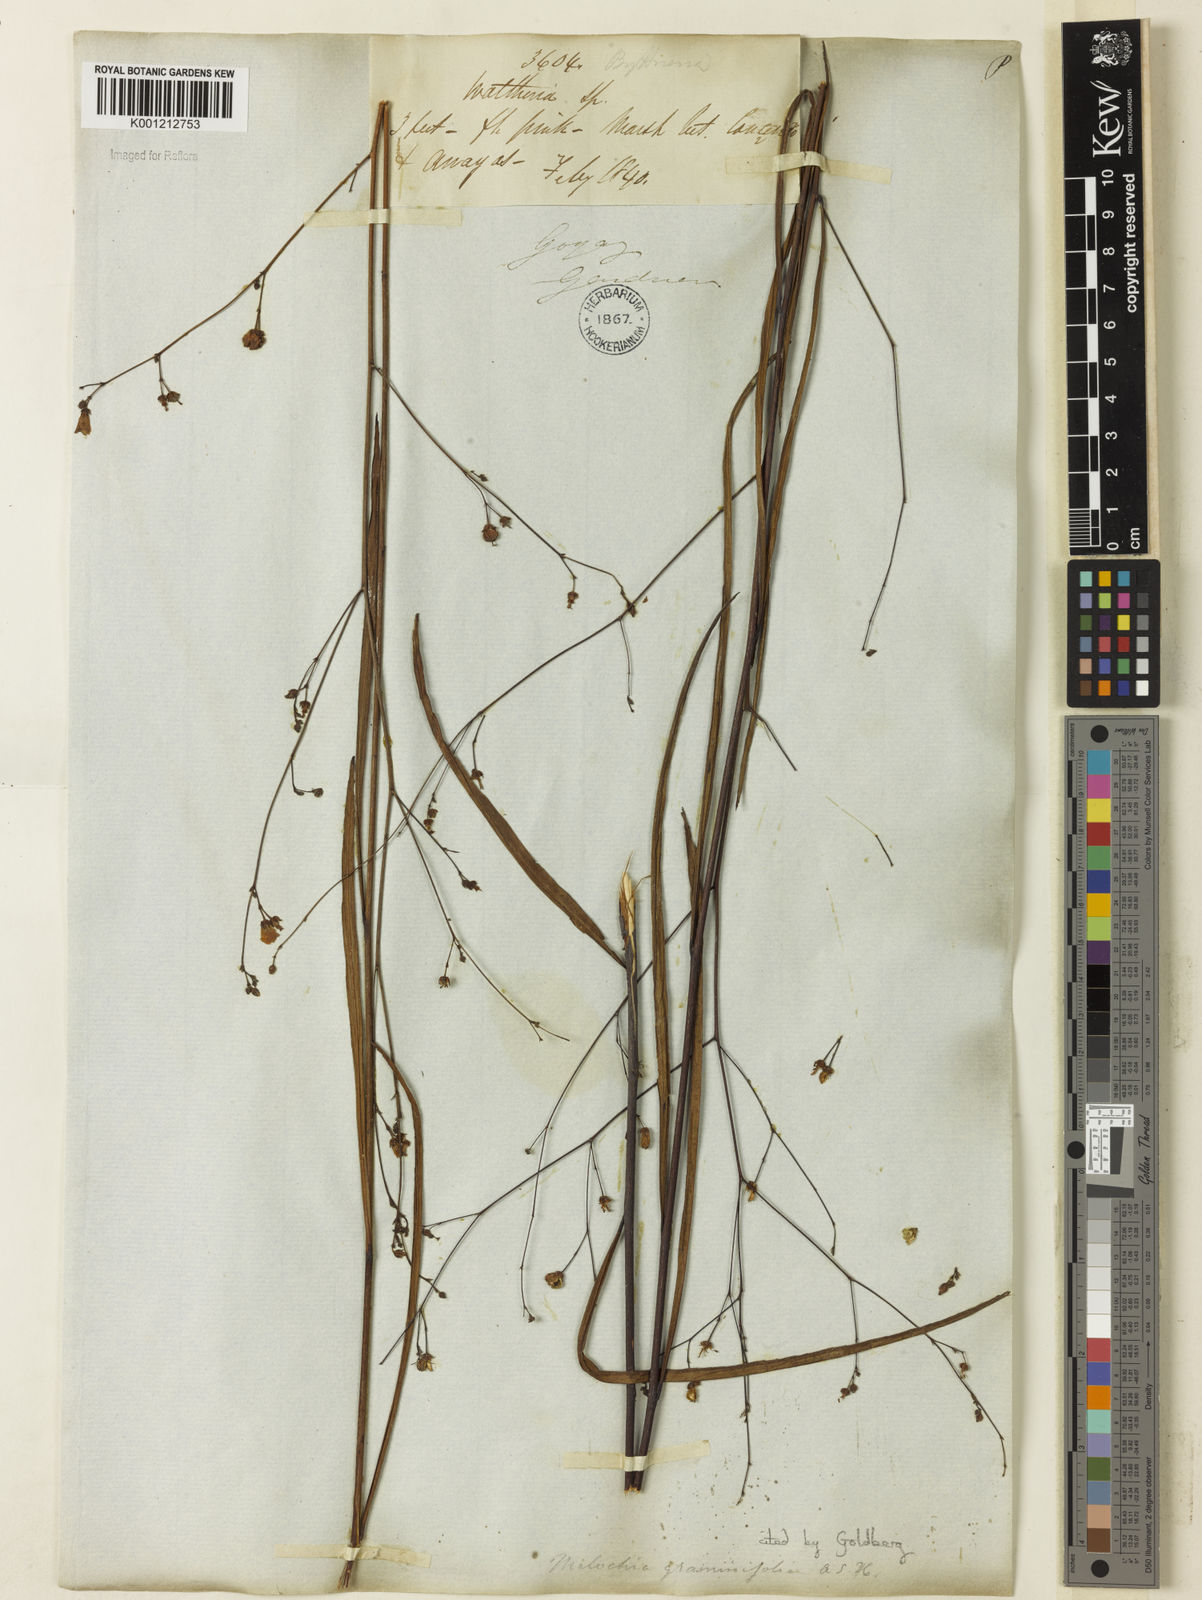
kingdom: Plantae
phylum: Tracheophyta
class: Magnoliopsida
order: Malvales
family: Malvaceae
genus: Melochia
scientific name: Melochia graminifolia
